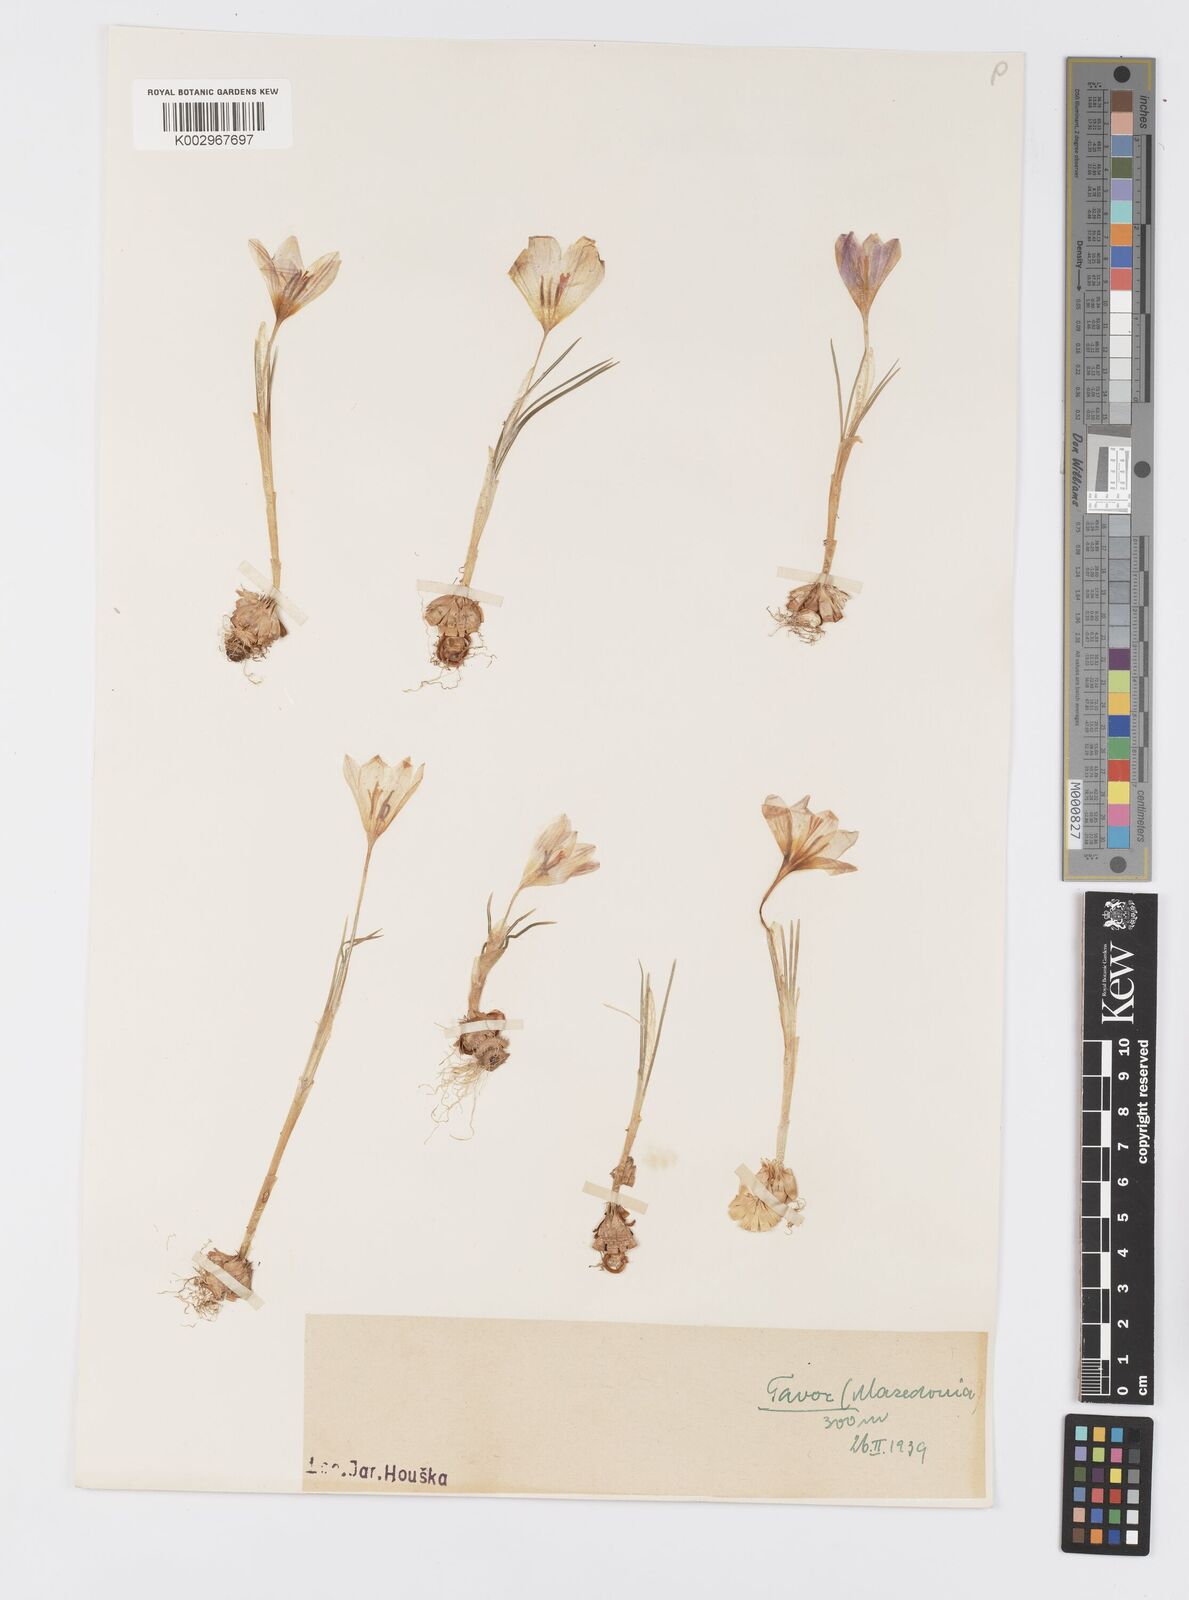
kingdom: Plantae
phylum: Tracheophyta
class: Liliopsida
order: Asparagales
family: Iridaceae
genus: Crocus
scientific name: Crocus adami
